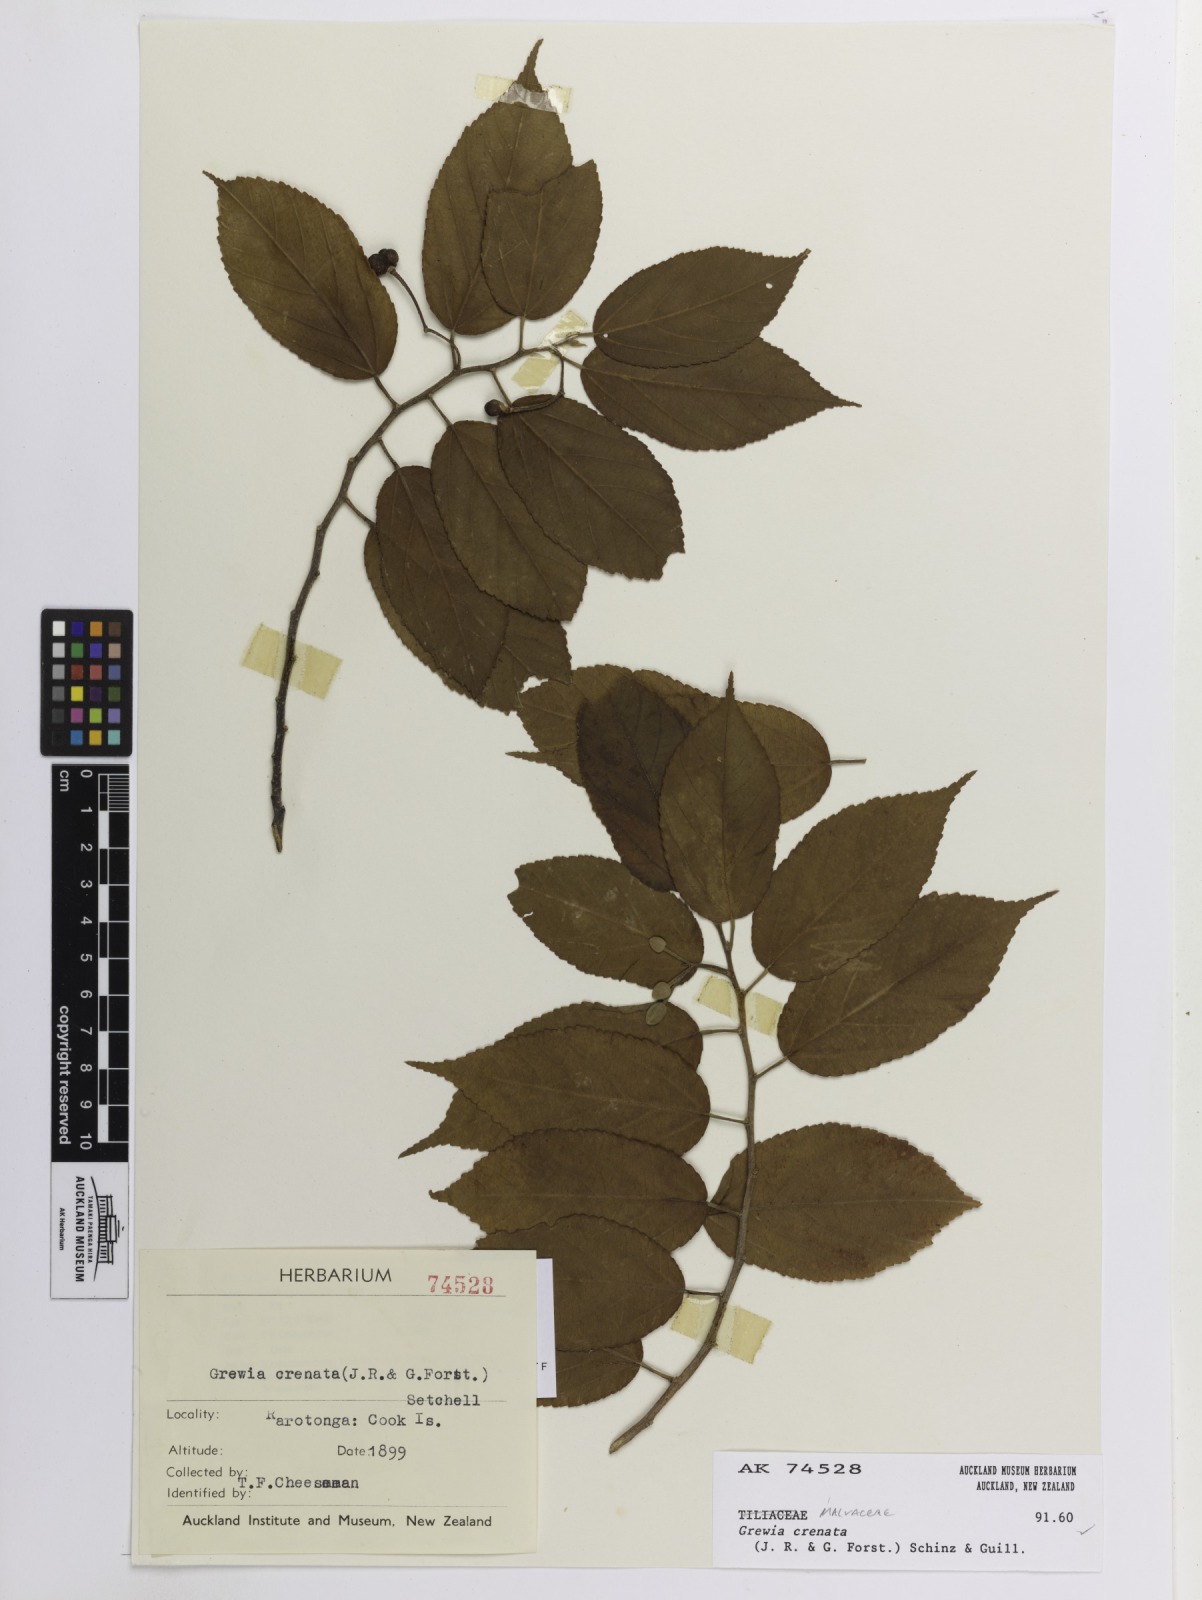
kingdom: Plantae
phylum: Tracheophyta
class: Magnoliopsida
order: Malvales
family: Malvaceae
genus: Grewia
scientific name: Grewia crenata
